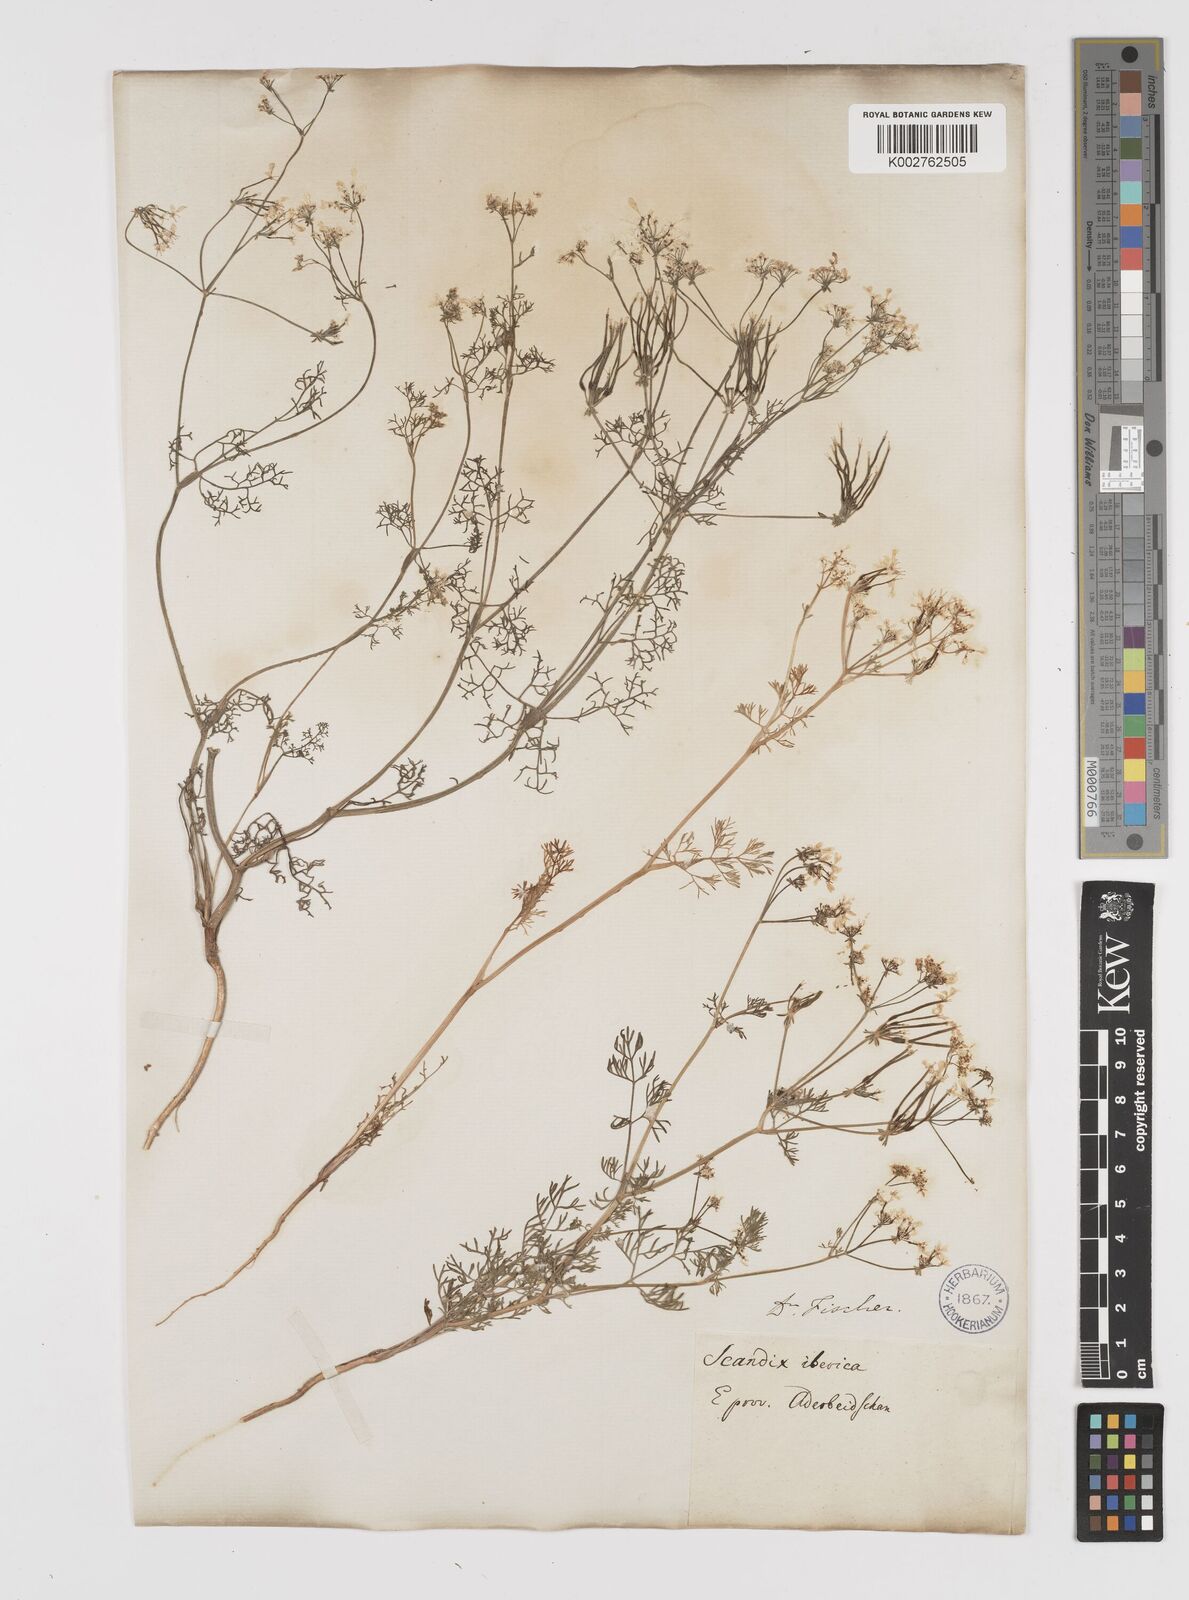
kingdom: Plantae
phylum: Tracheophyta
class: Magnoliopsida
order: Apiales
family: Apiaceae
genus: Scandix
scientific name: Scandix iberica
